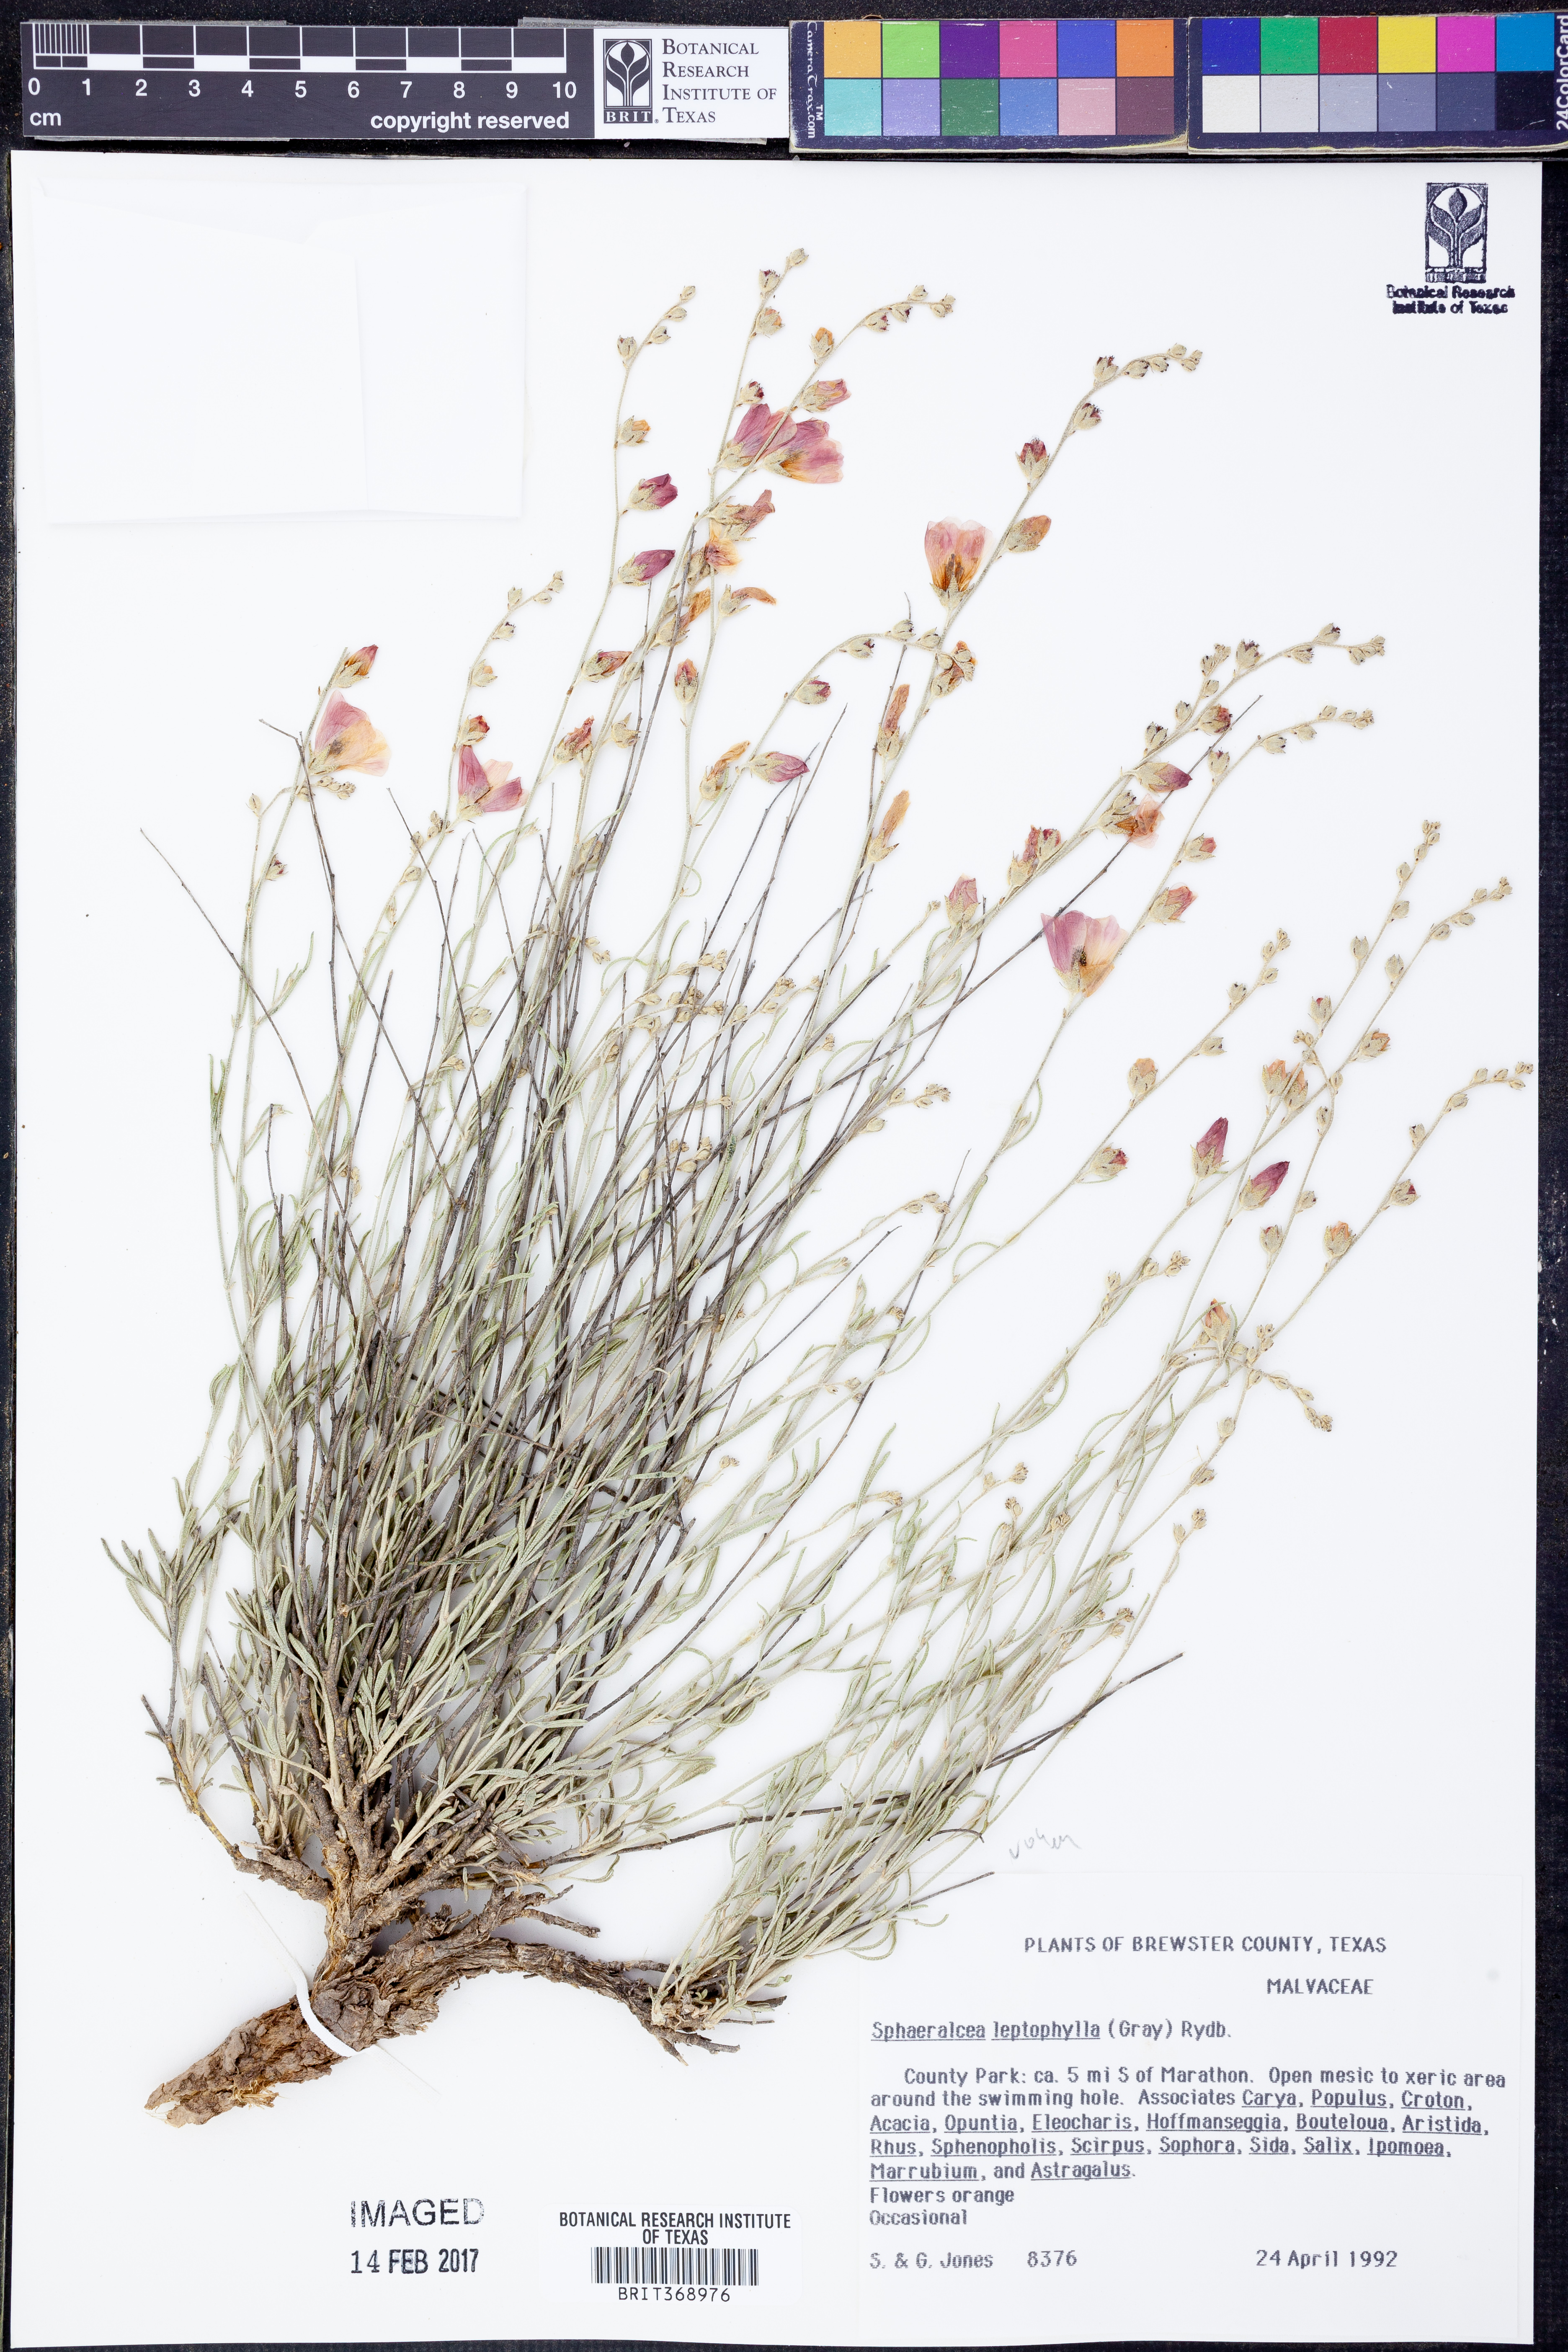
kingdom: Plantae
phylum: Tracheophyta
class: Magnoliopsida
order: Malvales
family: Malvaceae
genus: Sphaeralcea
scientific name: Sphaeralcea leptophylla
